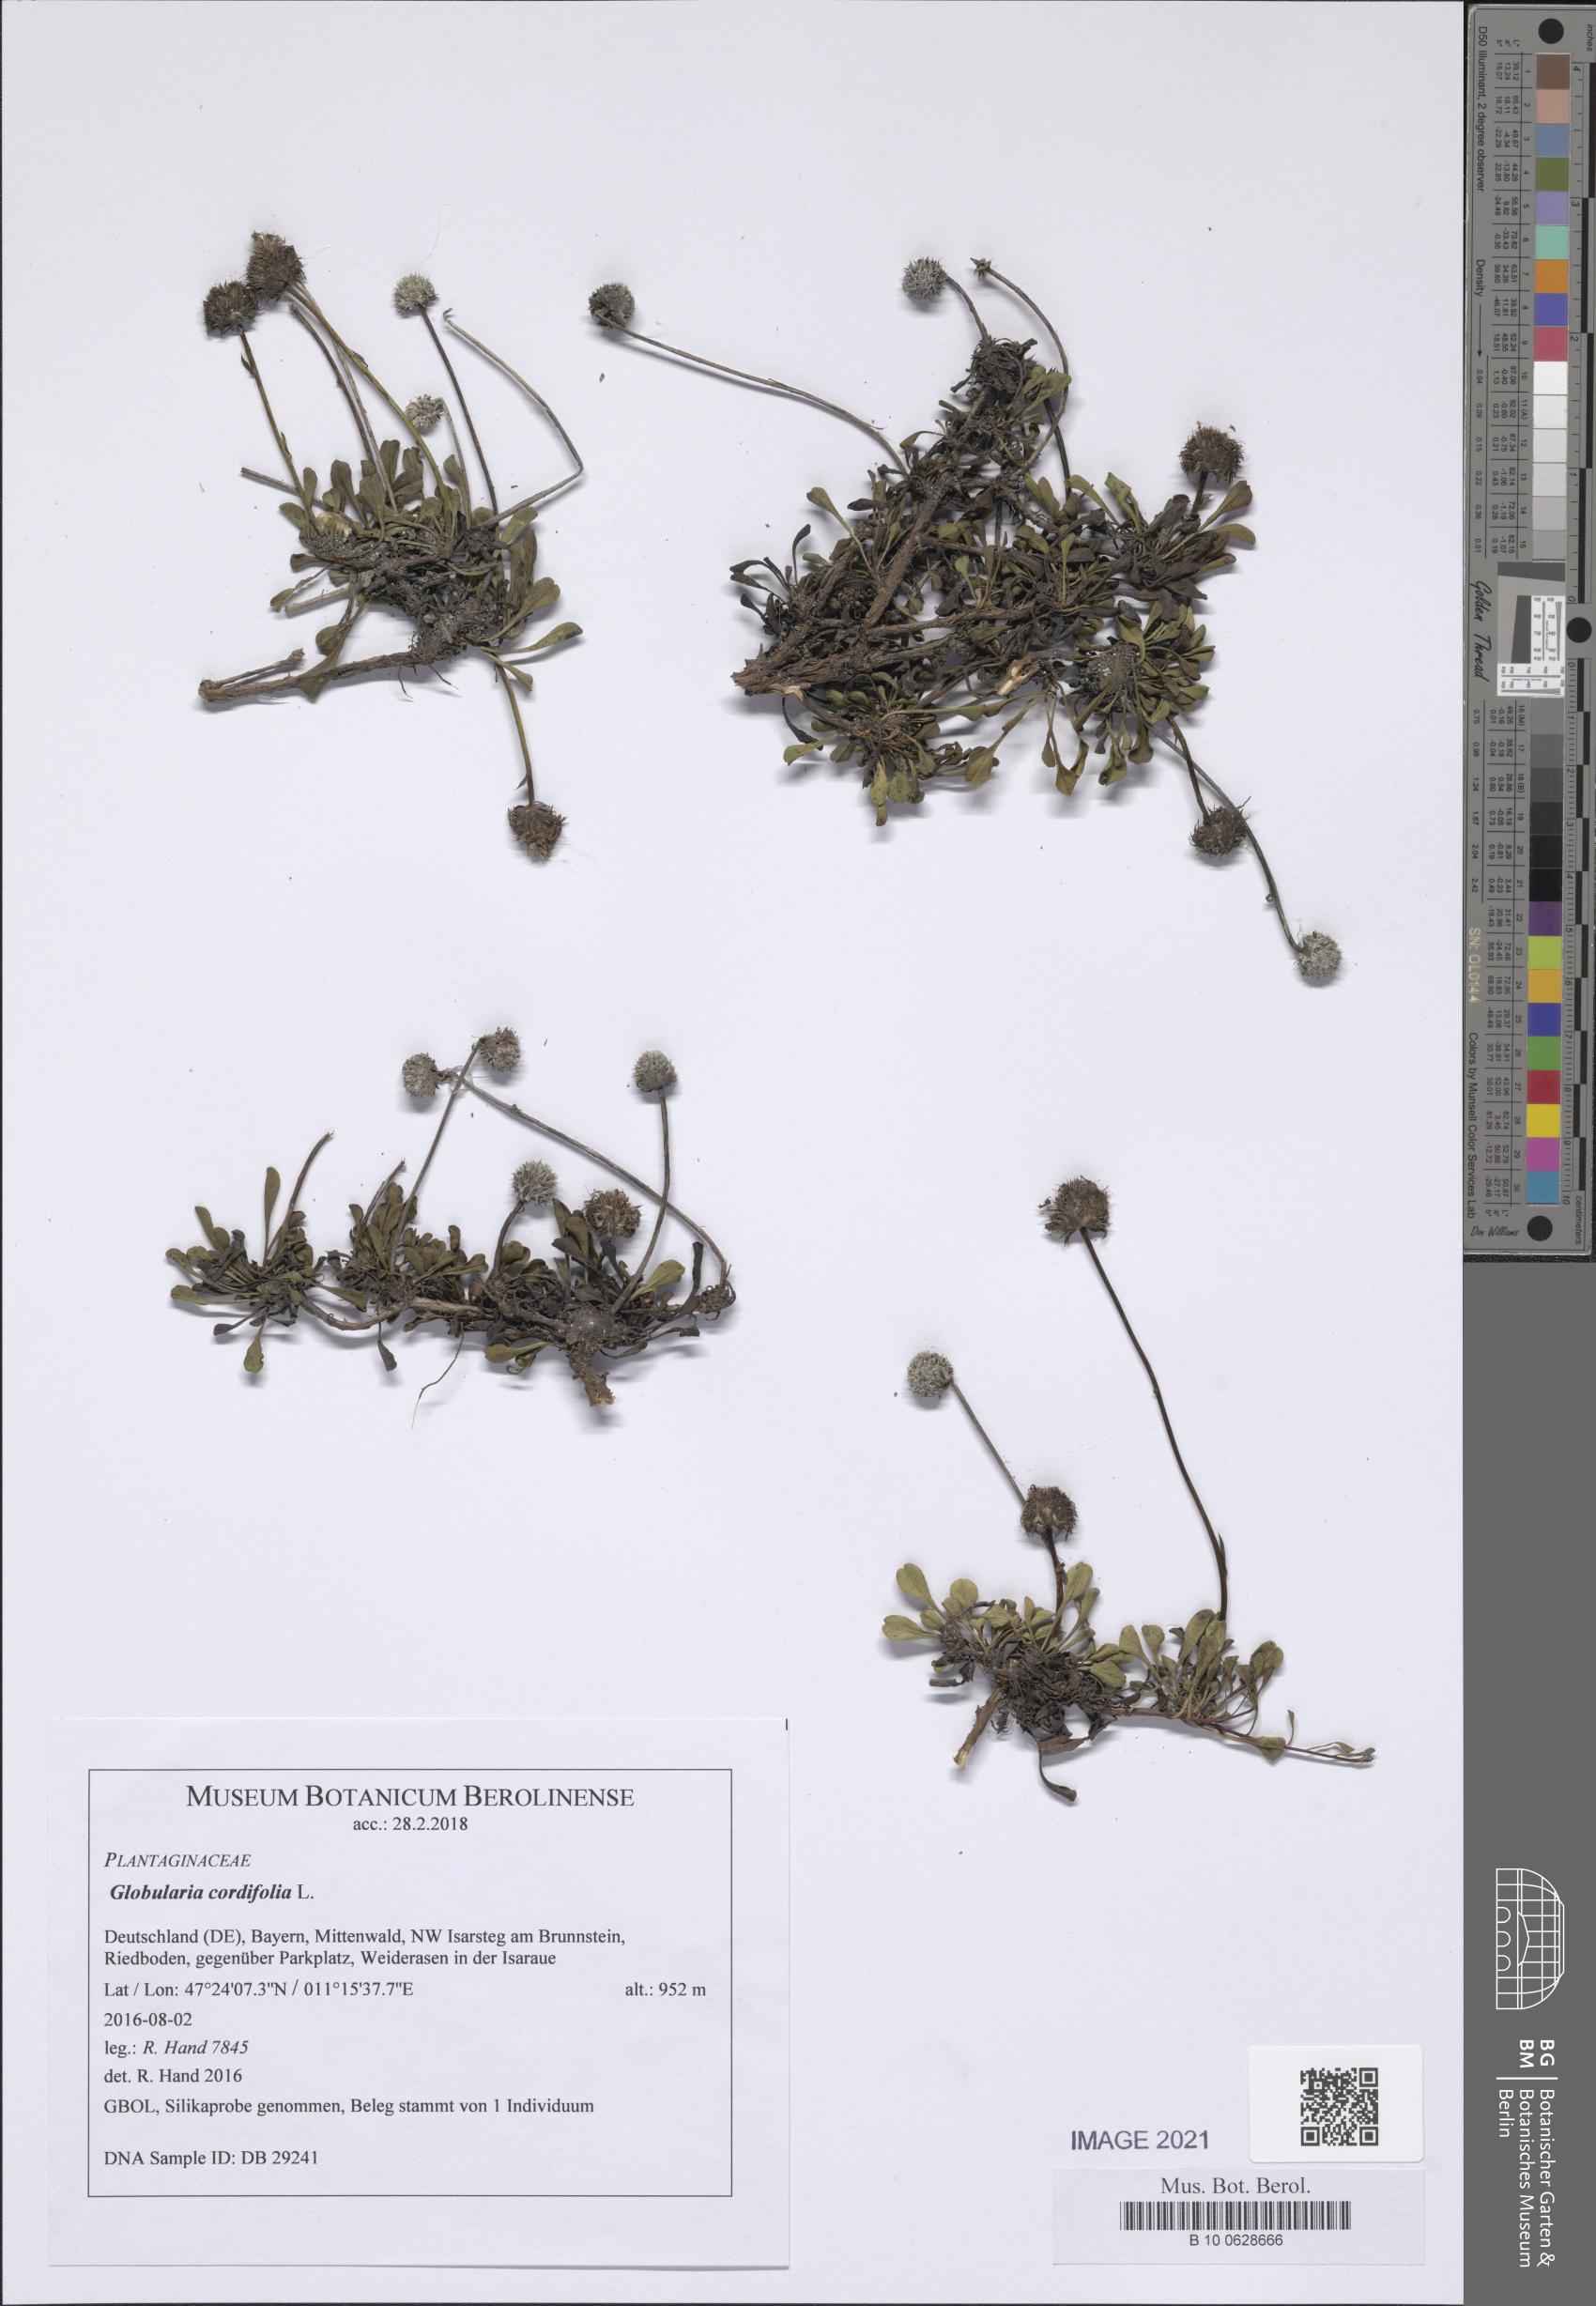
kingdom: Plantae
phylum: Tracheophyta
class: Magnoliopsida
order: Lamiales
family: Plantaginaceae
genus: Globularia
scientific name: Globularia cordifolia
